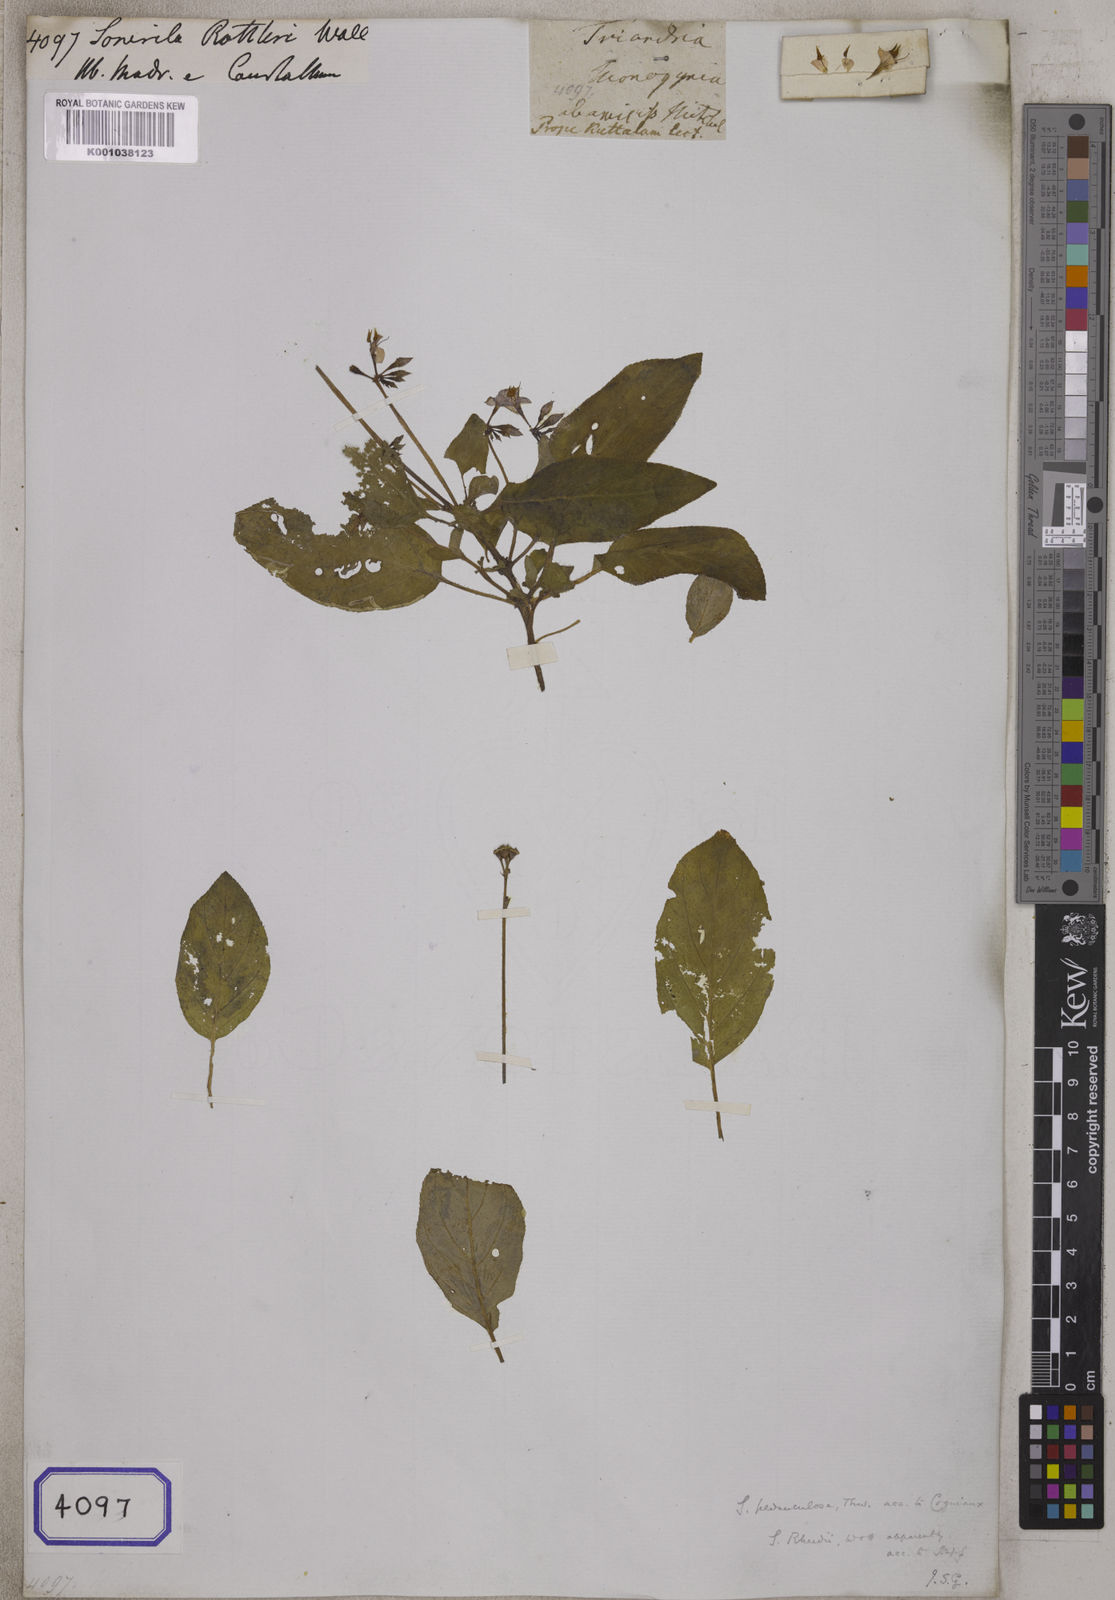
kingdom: Plantae
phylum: Tracheophyta
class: Magnoliopsida
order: Myrtales
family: Melastomataceae
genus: Sonerila
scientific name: Sonerila stricta
